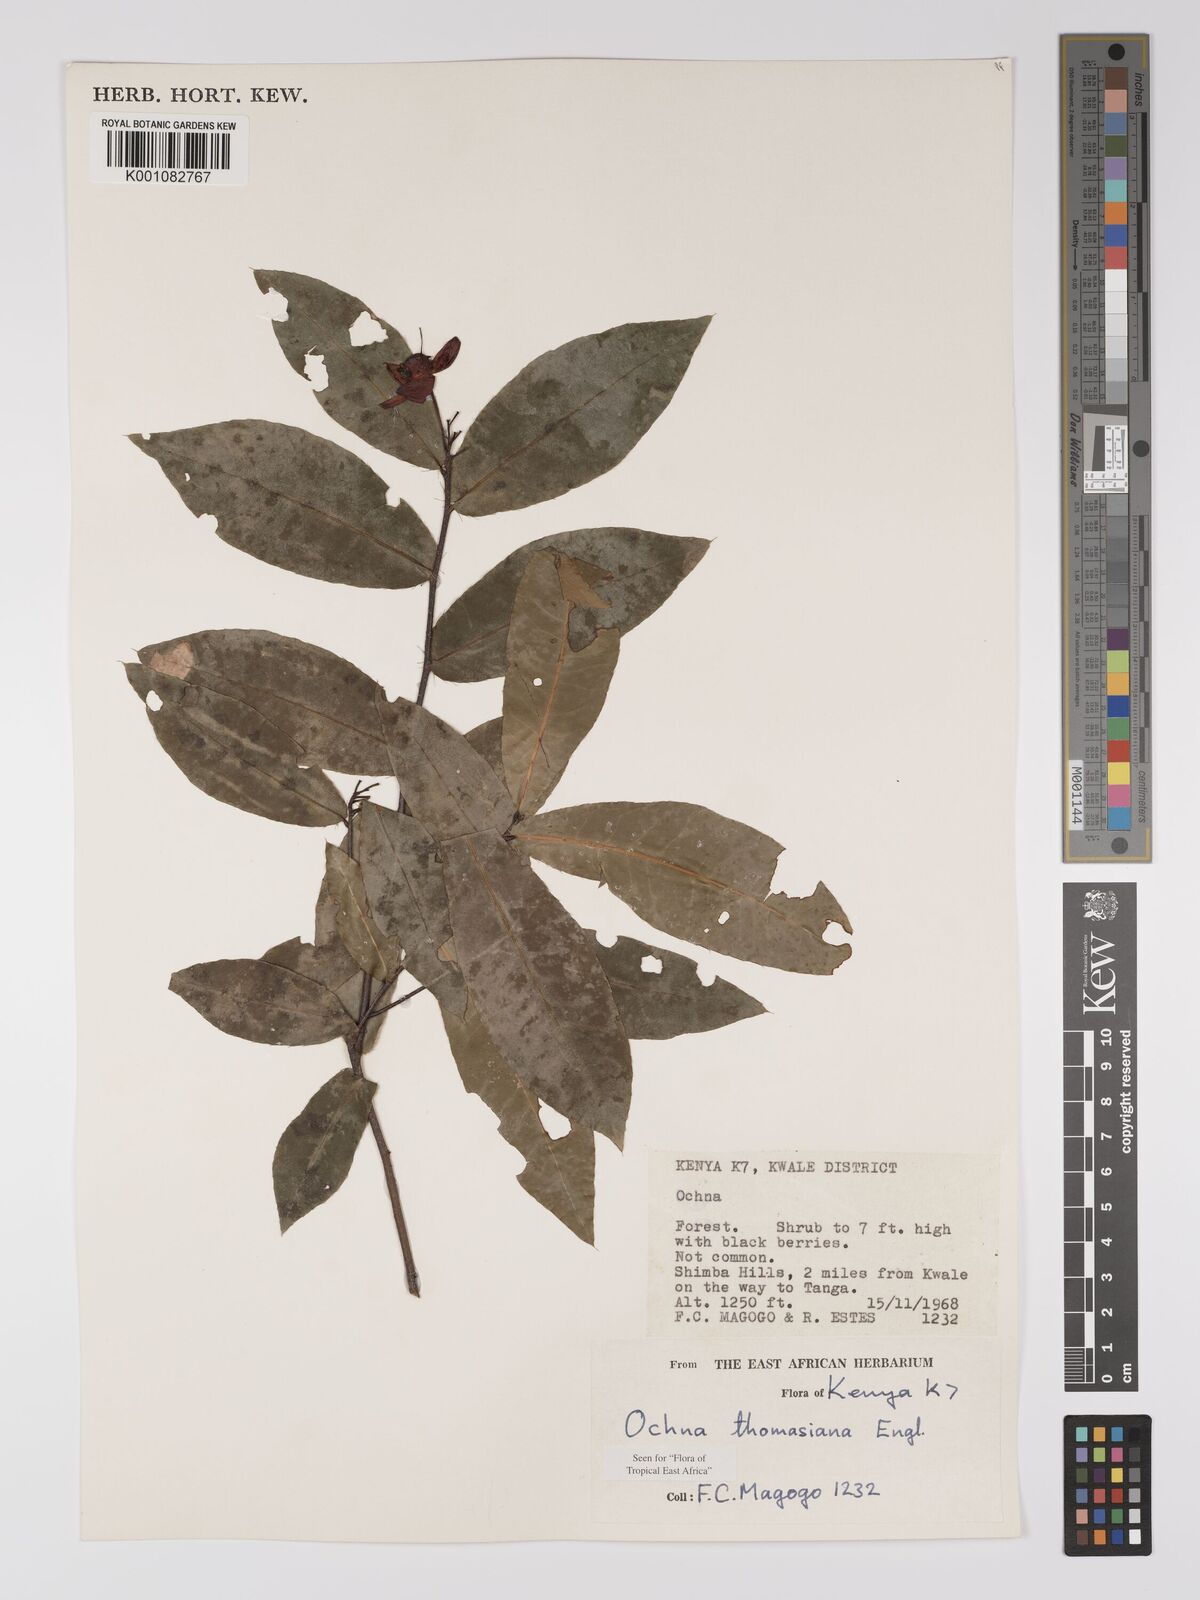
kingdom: Plantae
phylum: Tracheophyta
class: Magnoliopsida
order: Malpighiales
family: Ochnaceae
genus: Ochna
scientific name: Ochna thomasiana
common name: Thomas' bird's-eye bush
